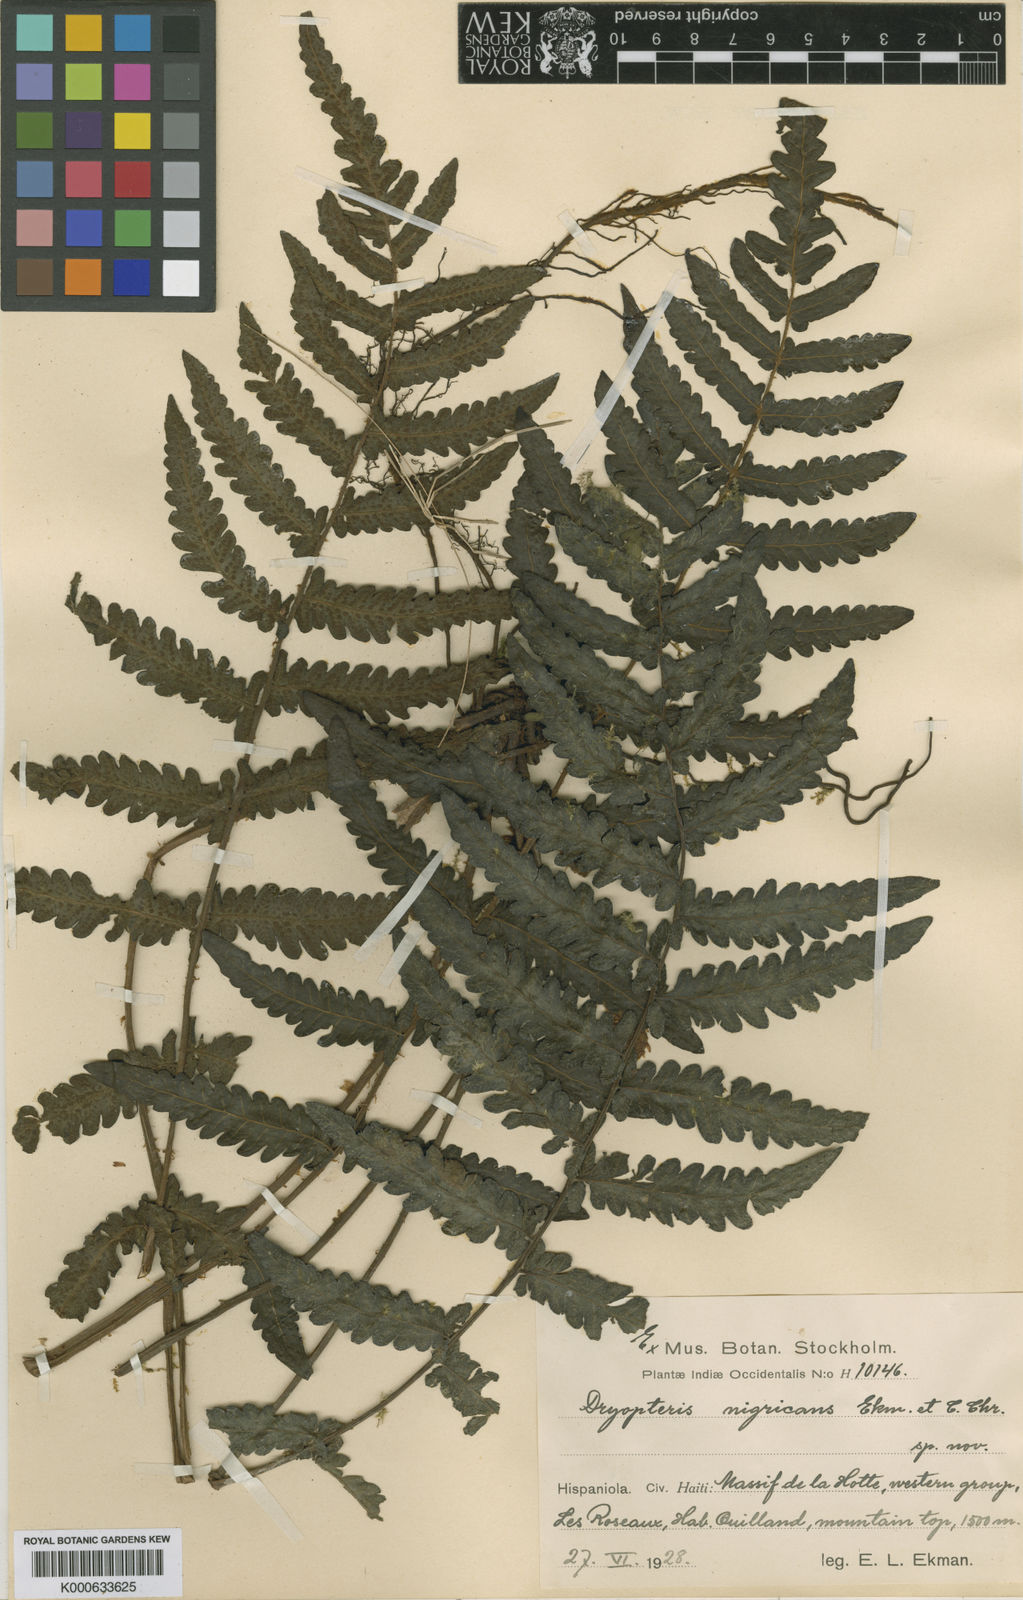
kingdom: Plantae
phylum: Tracheophyta
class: Polypodiopsida
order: Polypodiales
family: Thelypteridaceae
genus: Goniopteris
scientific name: Goniopteris
